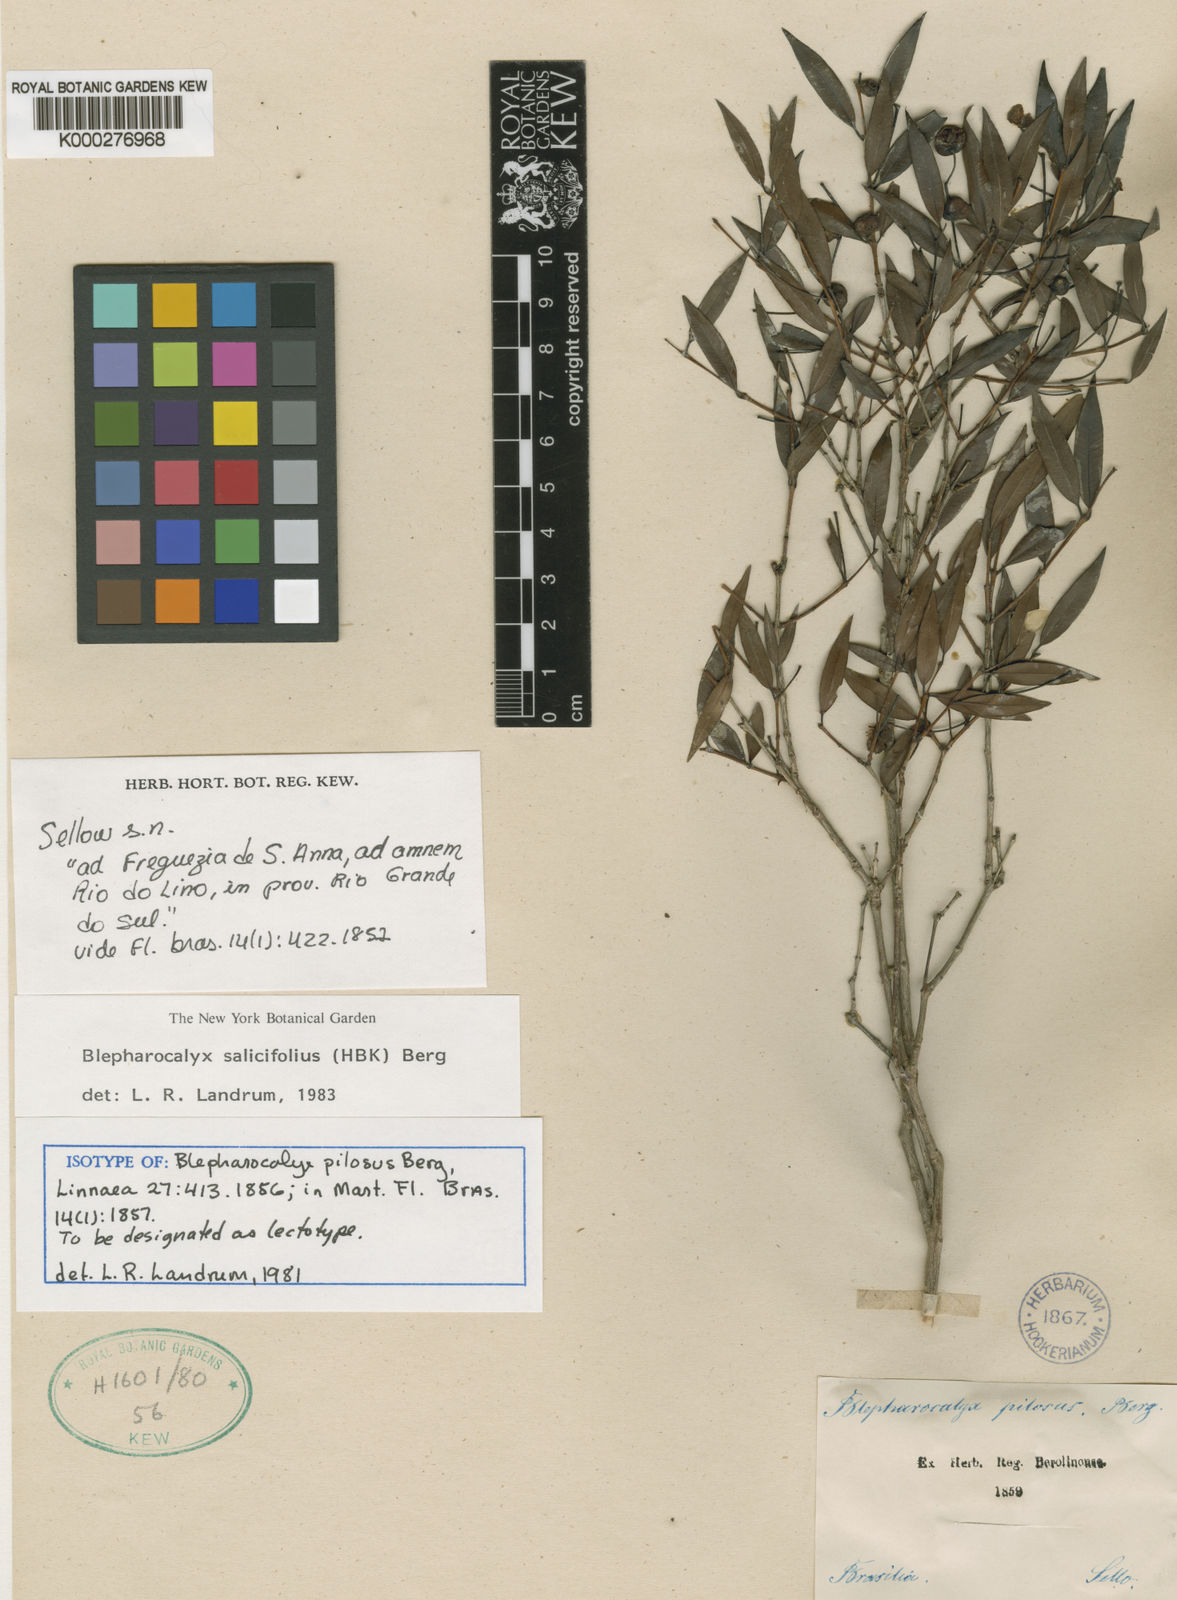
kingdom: Plantae
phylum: Tracheophyta
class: Magnoliopsida
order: Myrtales
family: Myrtaceae
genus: Blepharocalyx
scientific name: Blepharocalyx salicifolius
